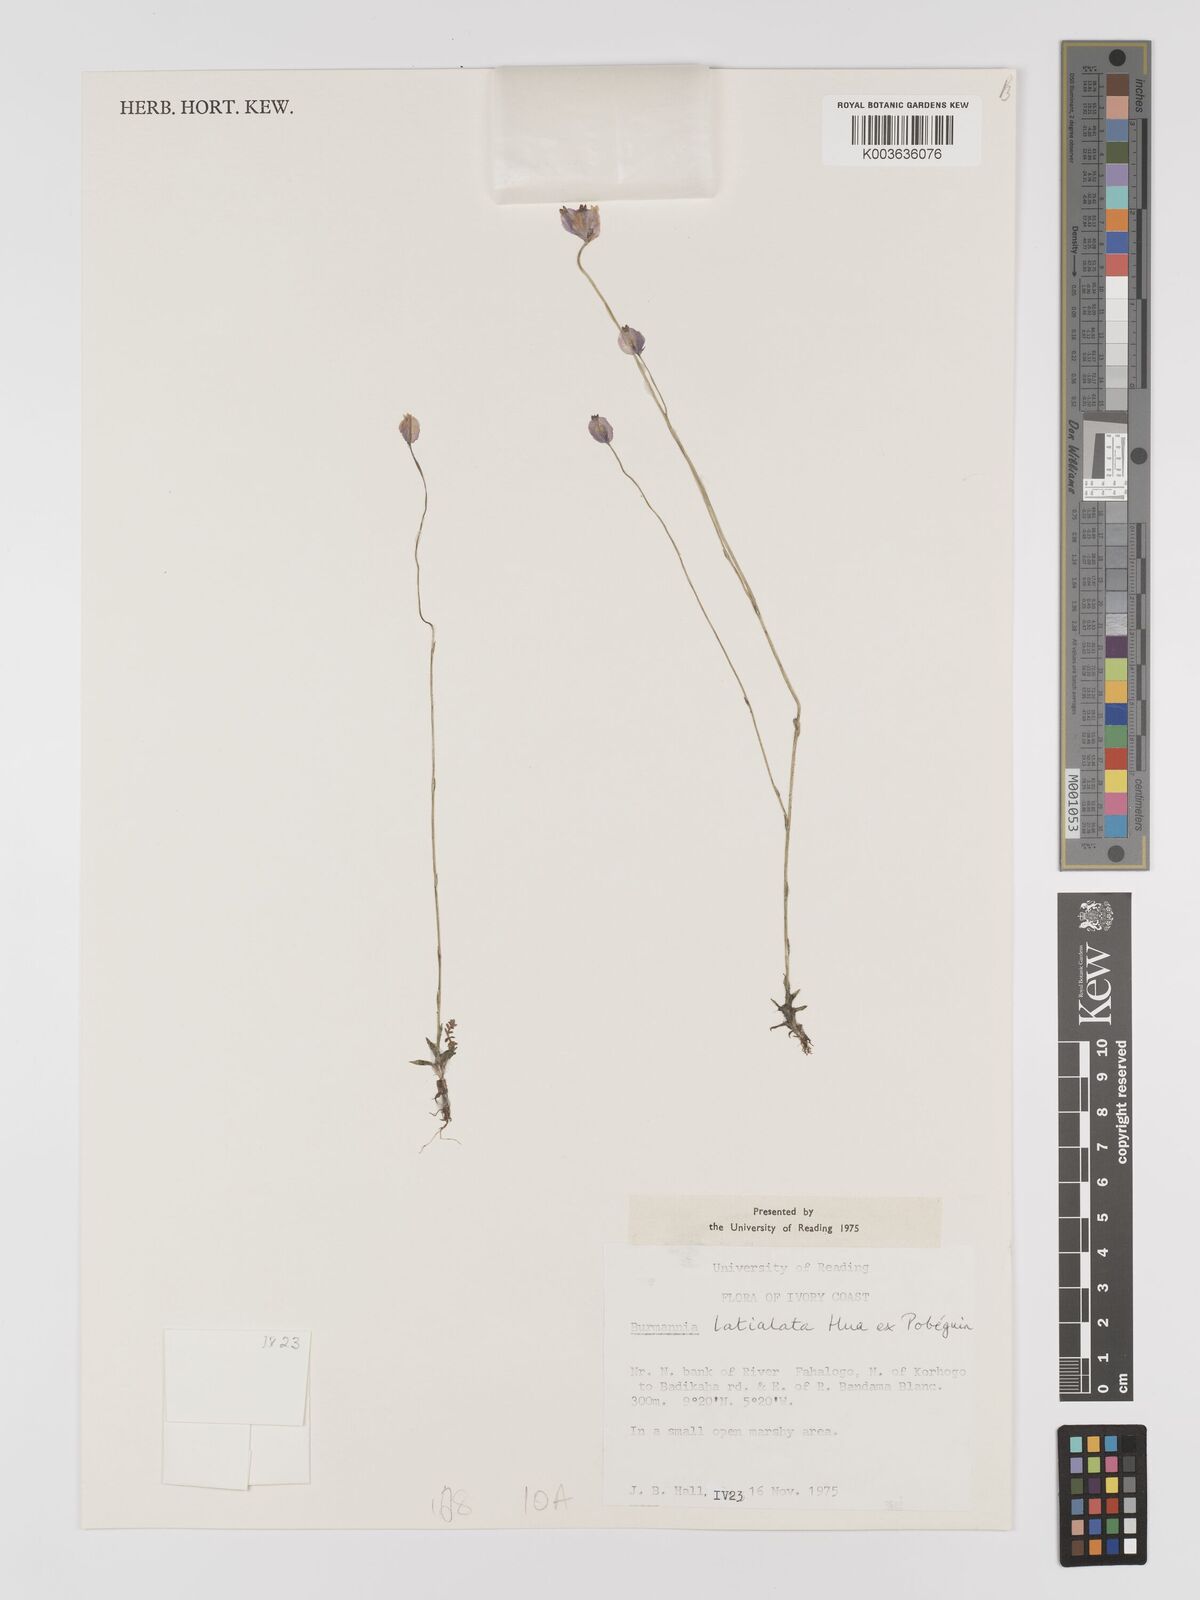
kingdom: Plantae
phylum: Tracheophyta
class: Liliopsida
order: Dioscoreales
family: Burmanniaceae
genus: Burmannia
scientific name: Burmannia madagascariensis
